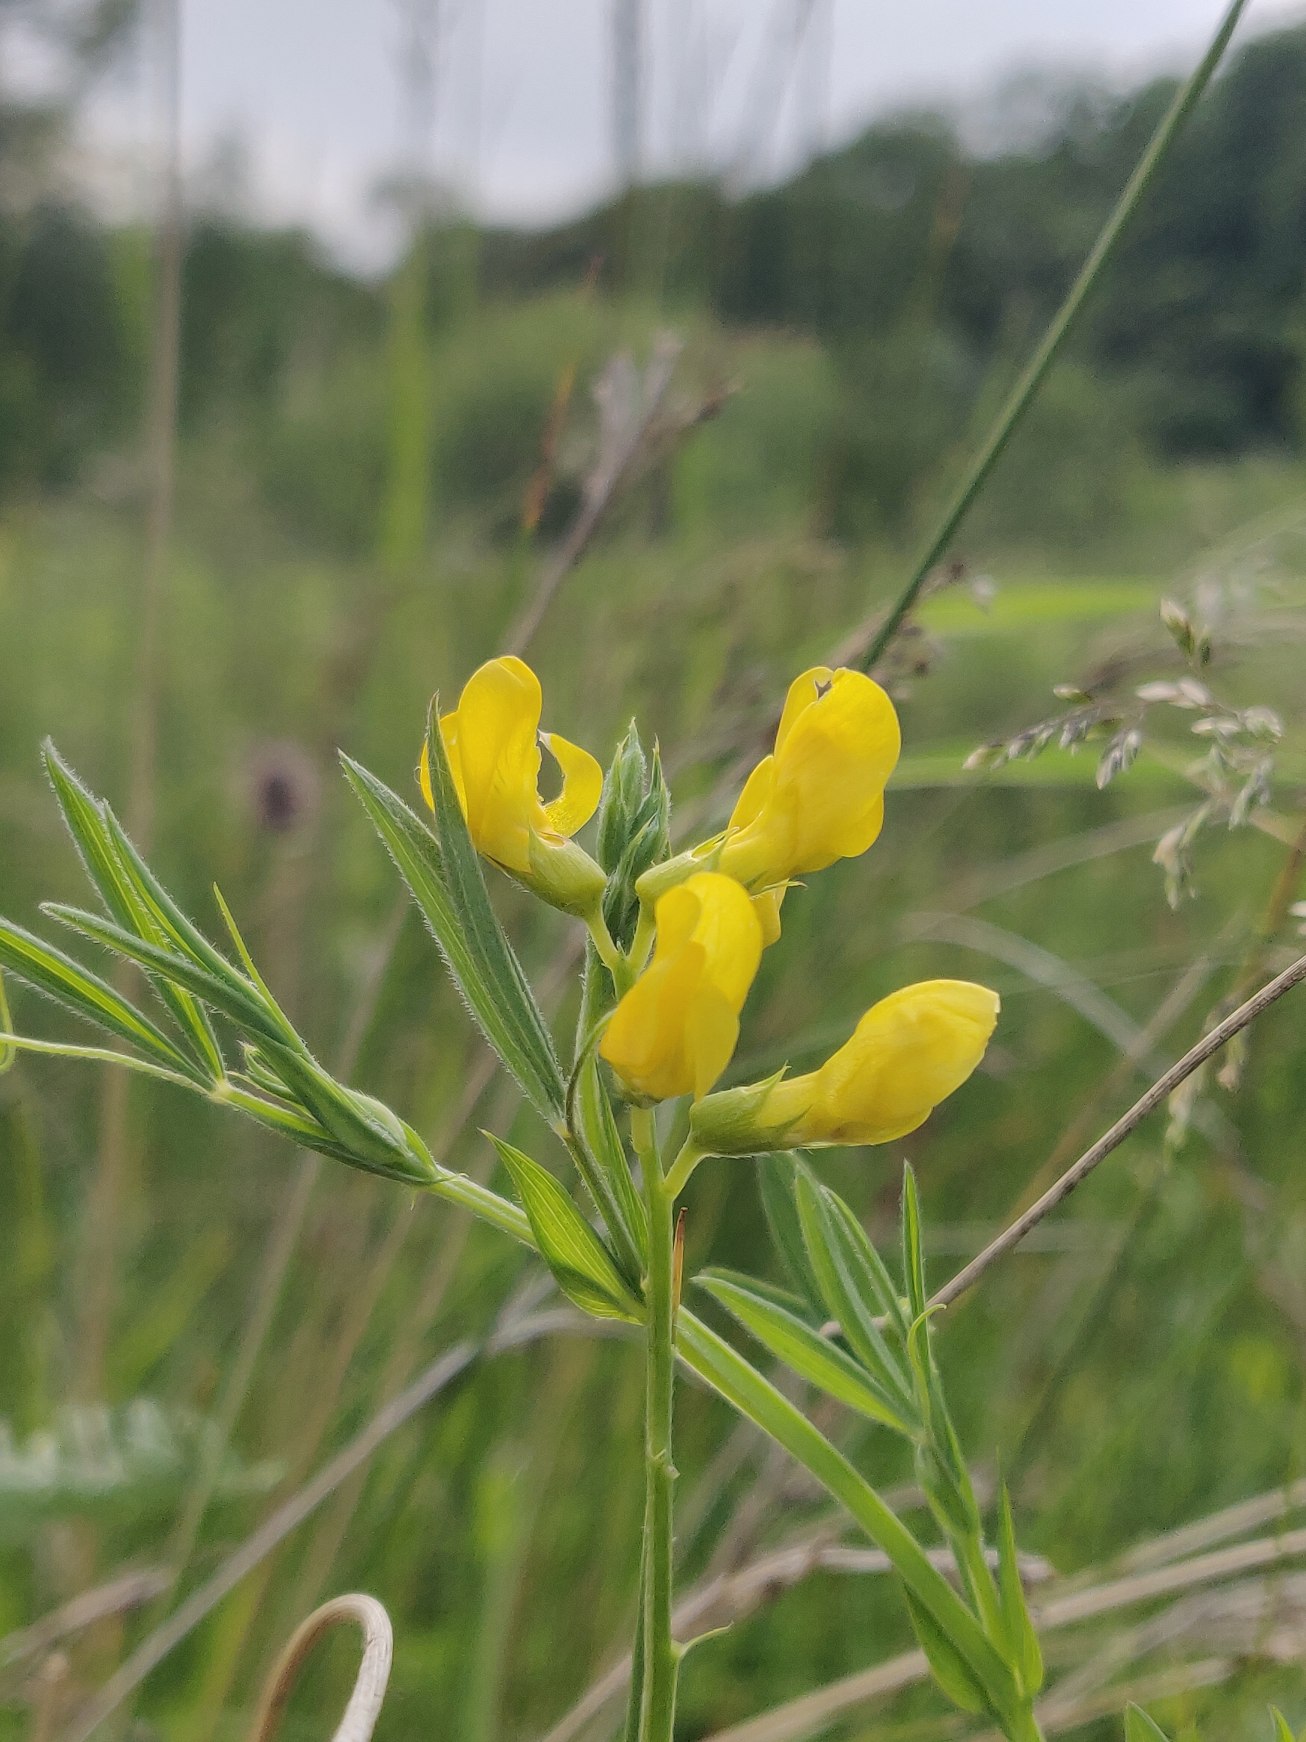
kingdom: Plantae
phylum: Tracheophyta
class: Magnoliopsida
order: Fabales
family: Fabaceae
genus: Lathyrus
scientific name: Lathyrus pratensis
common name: Gul fladbælg
